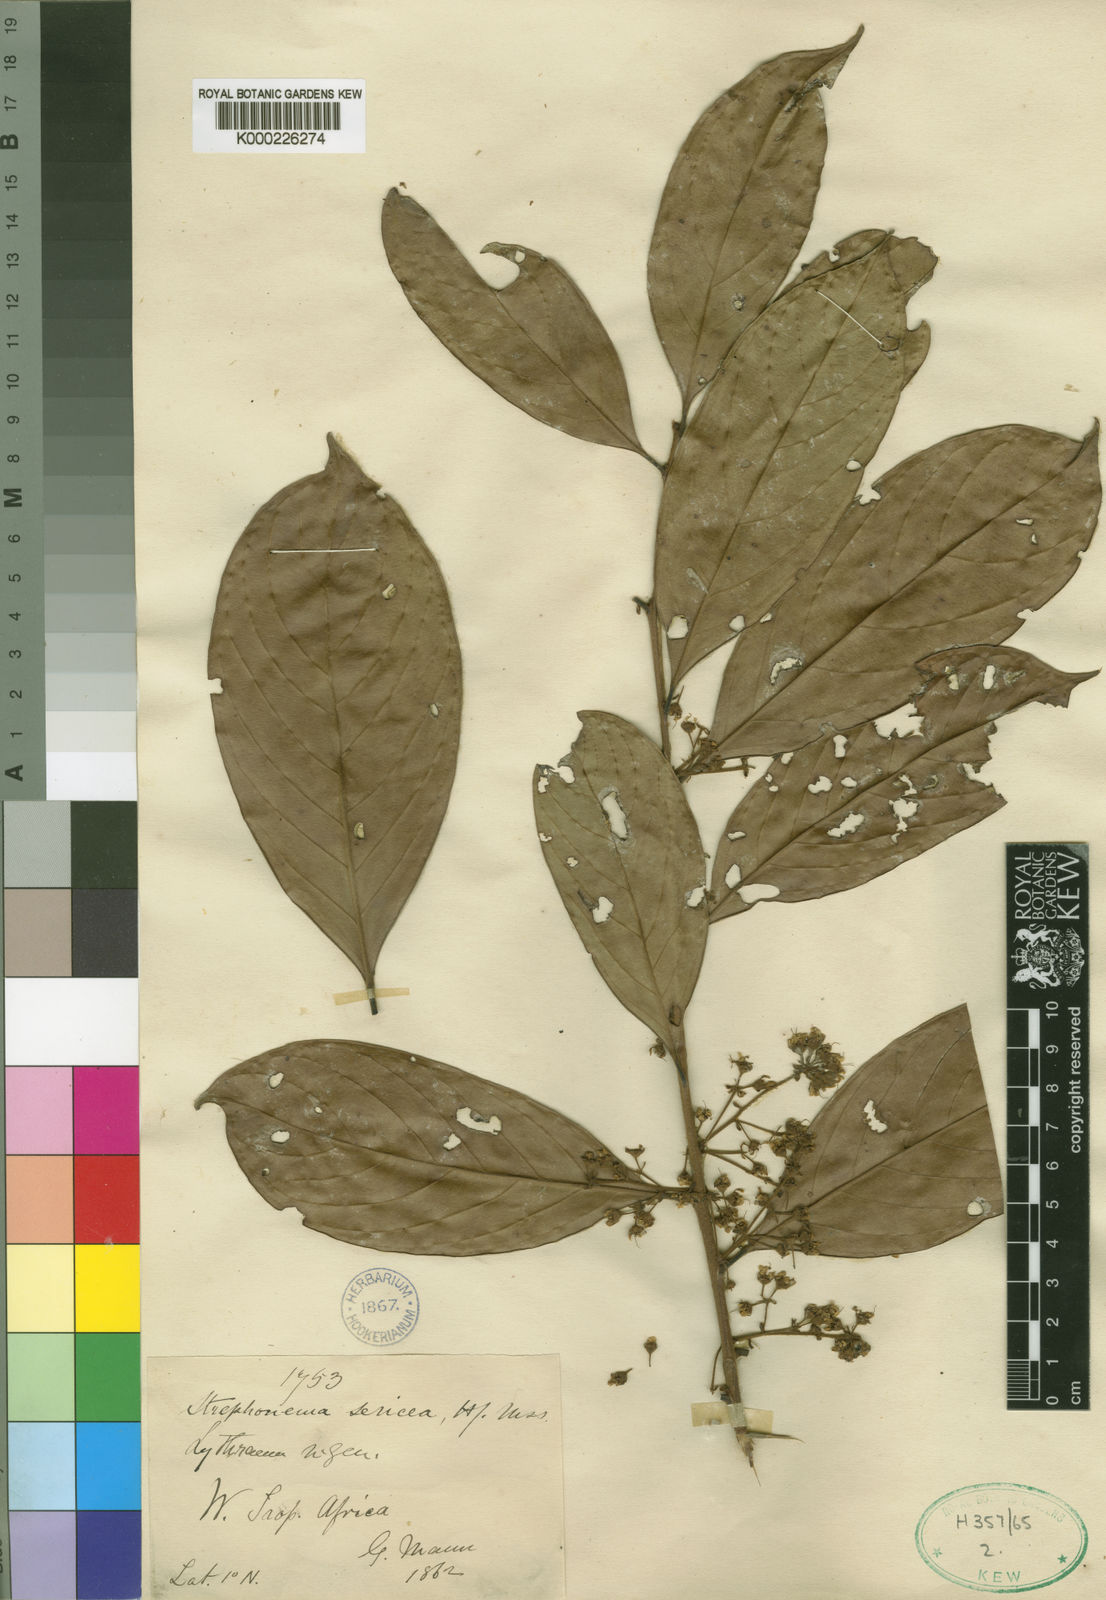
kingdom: Plantae
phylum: Tracheophyta
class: Magnoliopsida
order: Myrtales
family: Combretaceae
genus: Strephonema
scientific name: Strephonema sericeum
